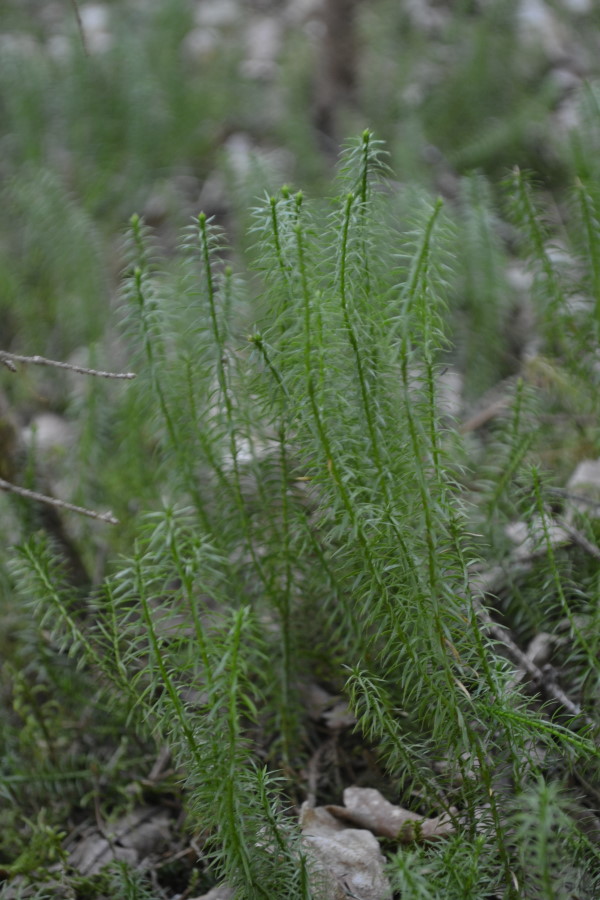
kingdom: Plantae
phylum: Tracheophyta
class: Lycopodiopsida
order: Lycopodiales
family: Lycopodiaceae
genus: Lycopodium
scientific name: Lycopodium clavatum
